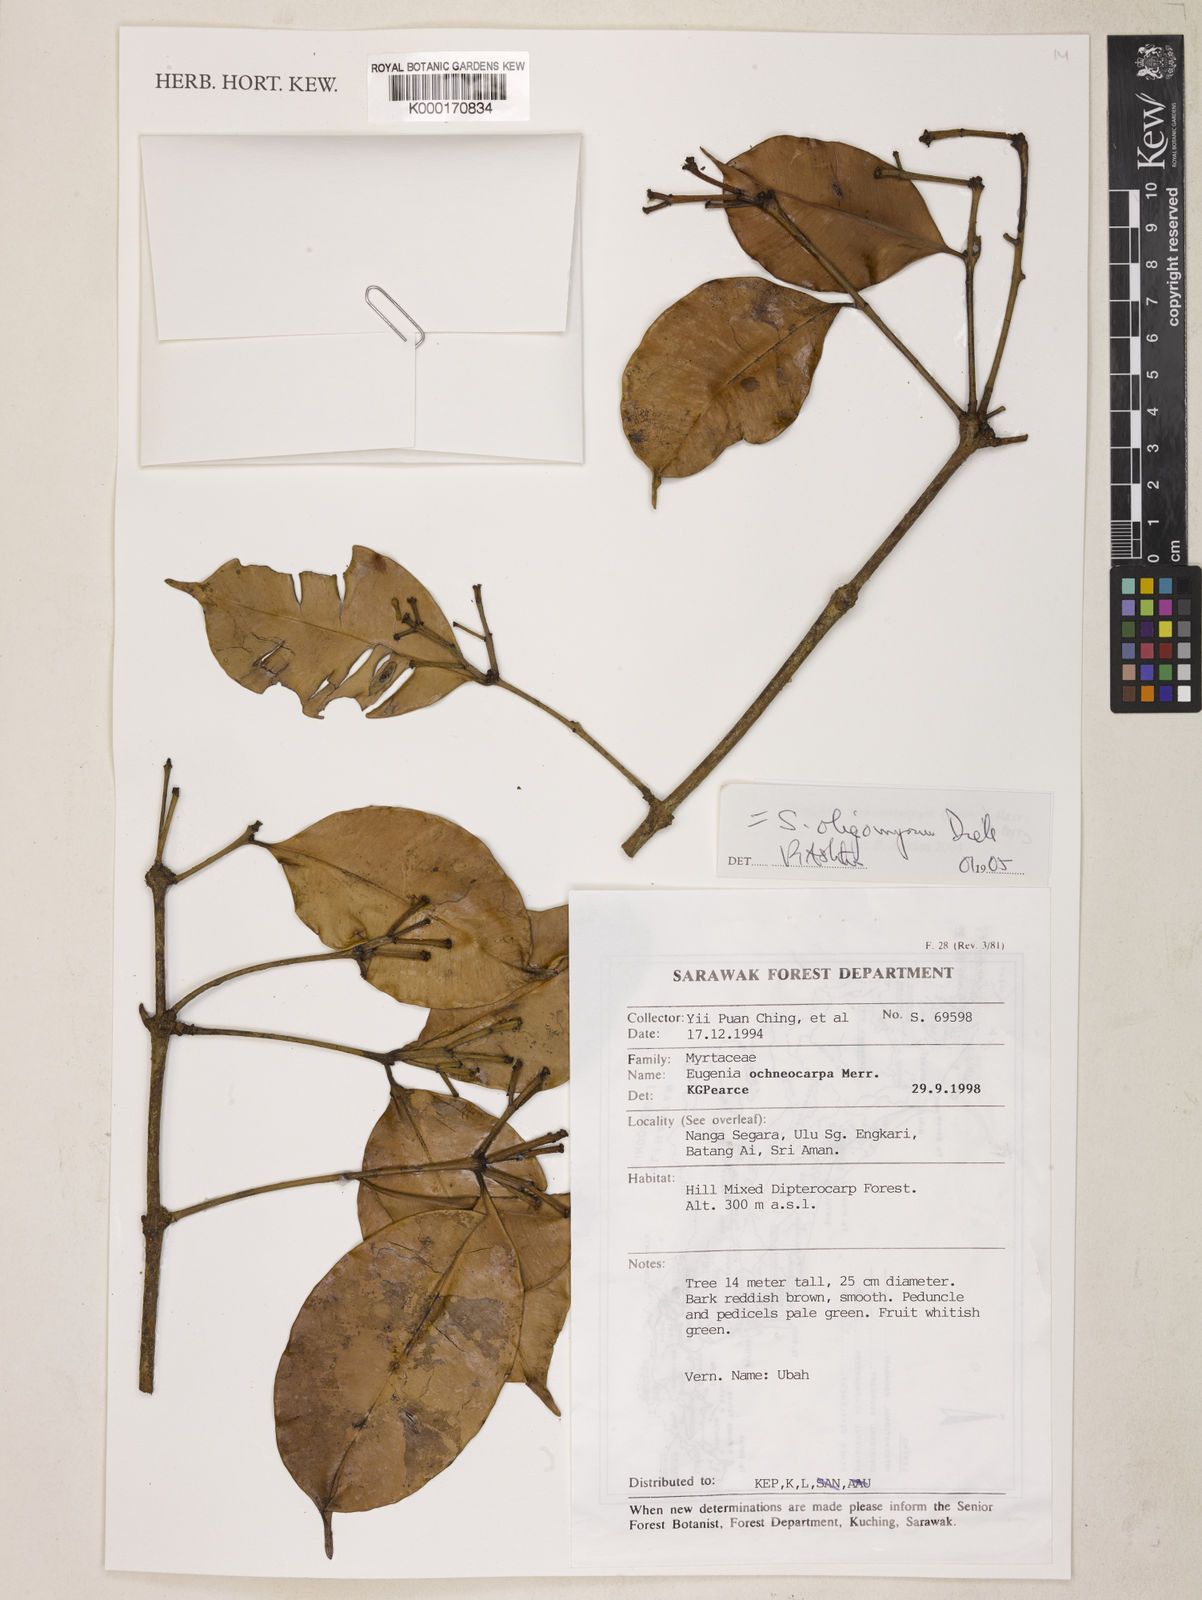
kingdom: Plantae
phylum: Tracheophyta
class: Magnoliopsida
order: Myrtales
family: Myrtaceae
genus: Syzygium
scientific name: Syzygium oligomyrum
